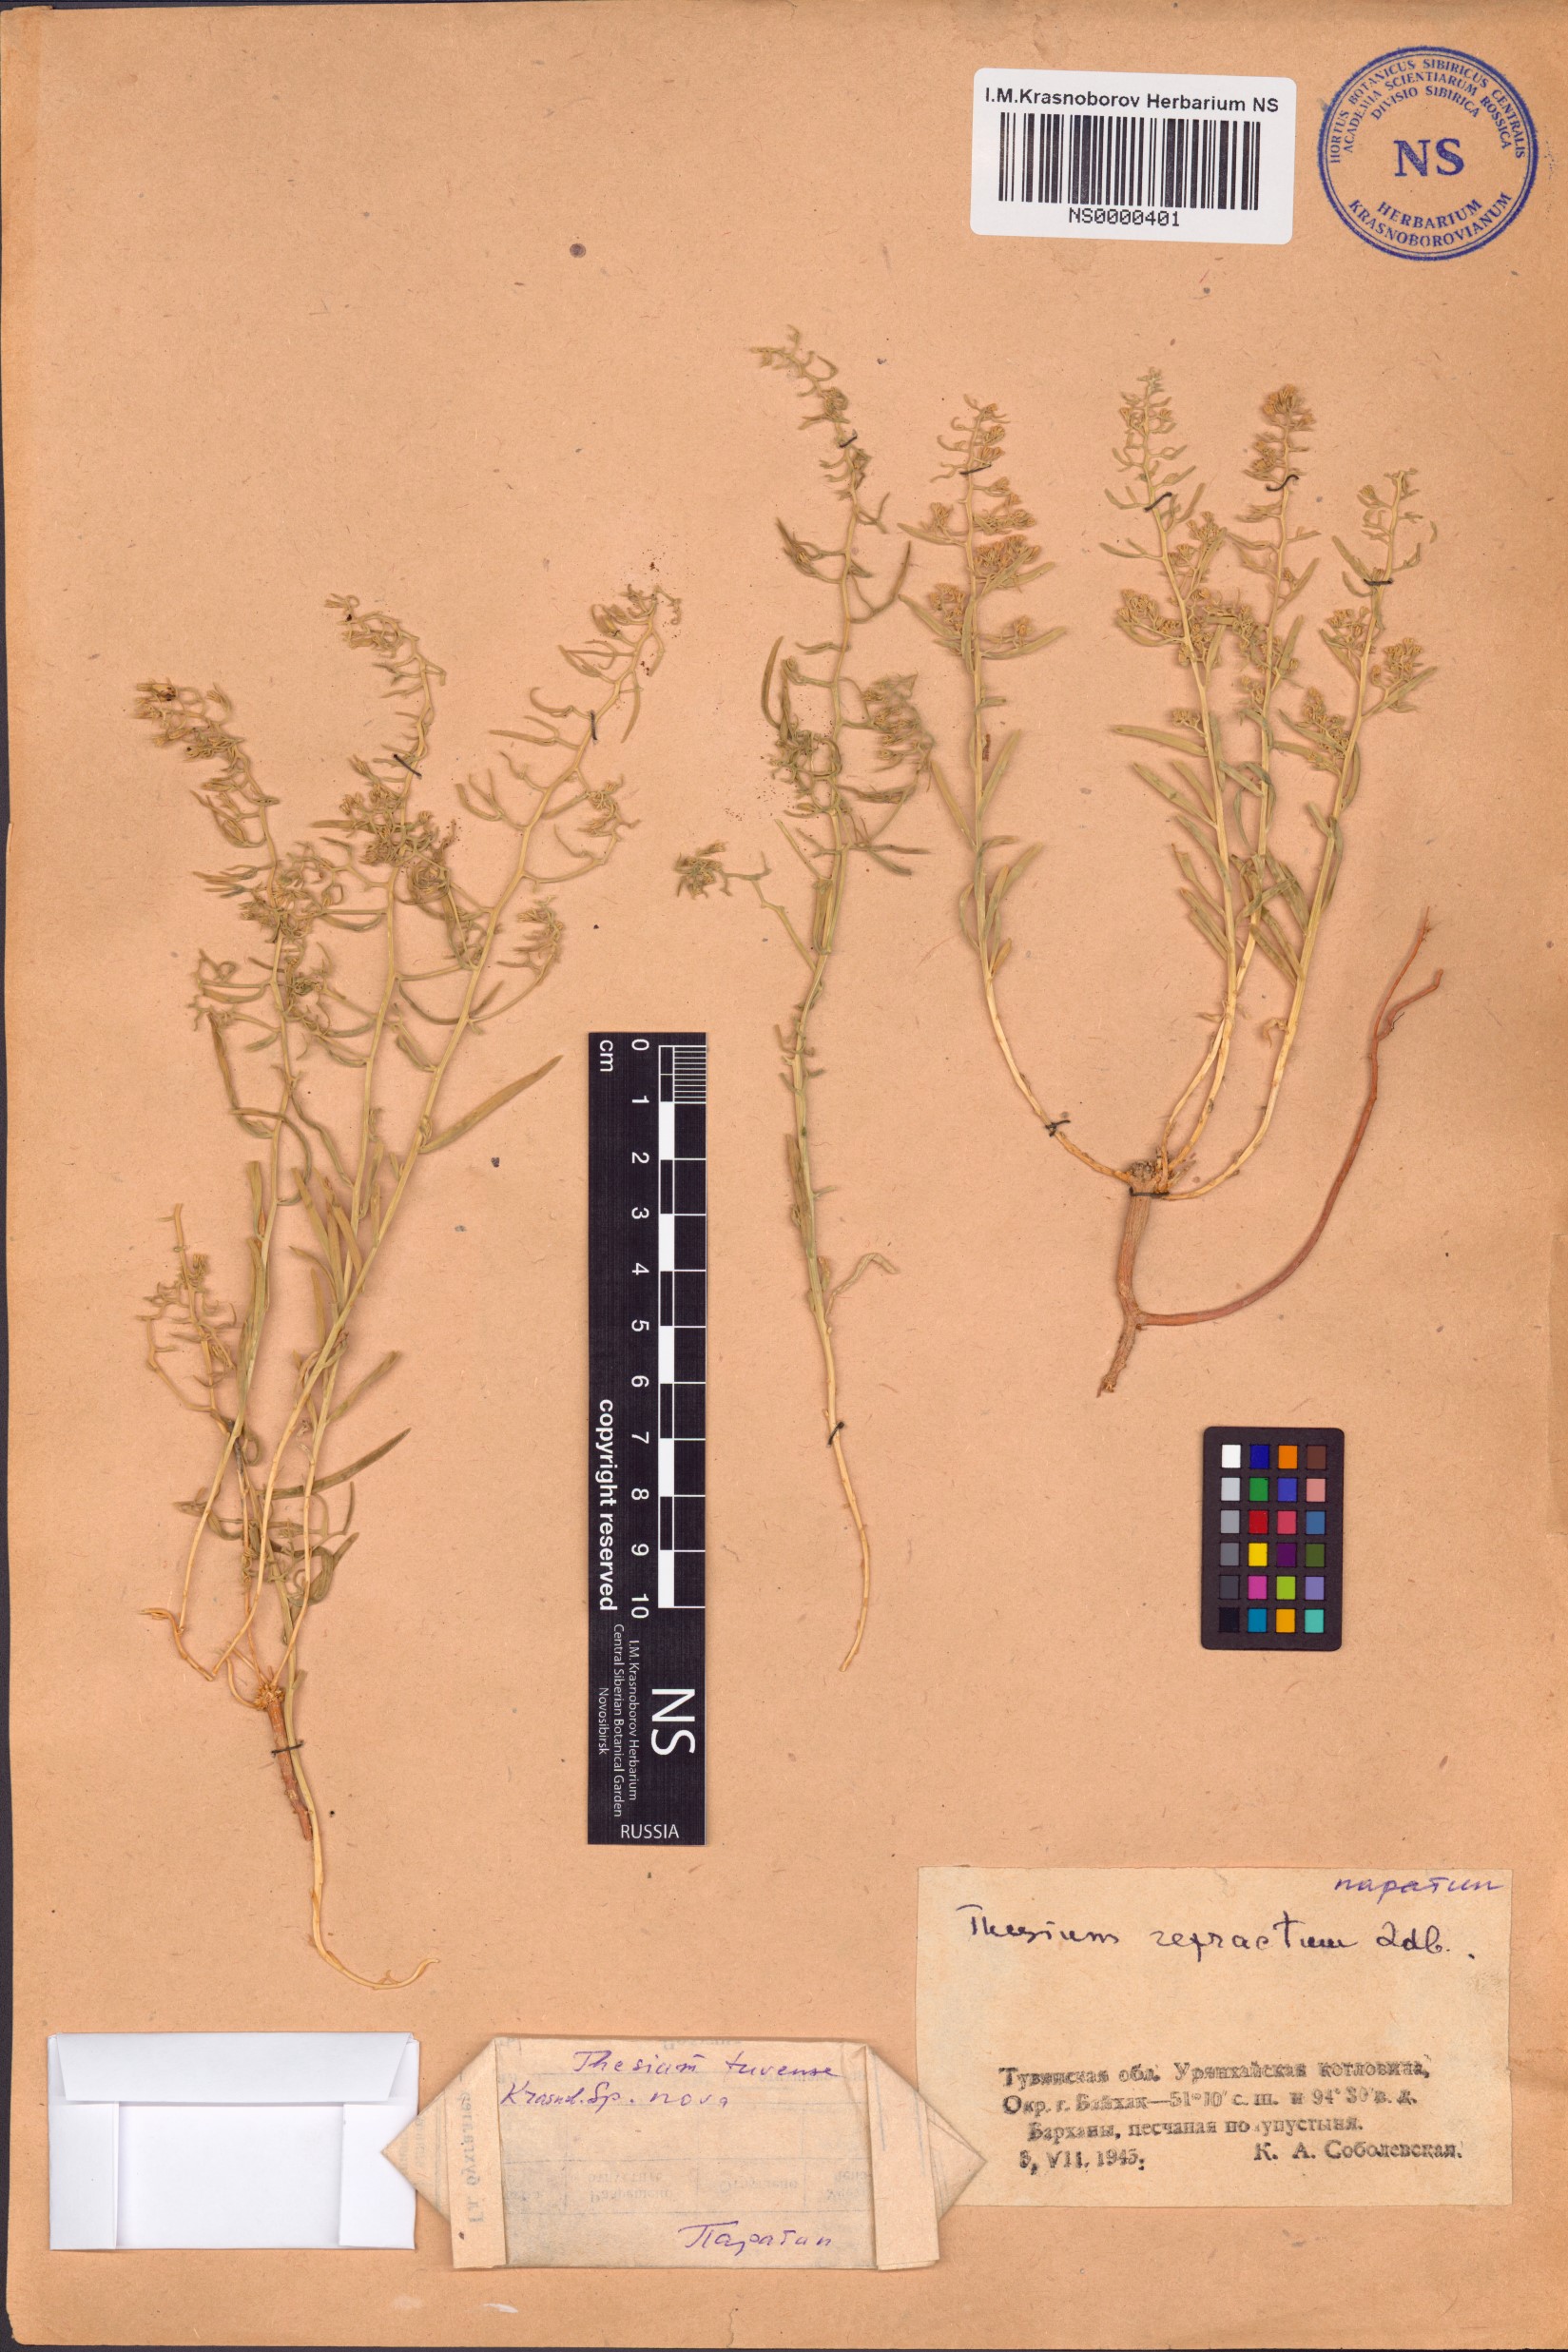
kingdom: Plantae
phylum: Tracheophyta
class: Magnoliopsida
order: Santalales
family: Thesiaceae
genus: Thesium
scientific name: Thesium tuvense
